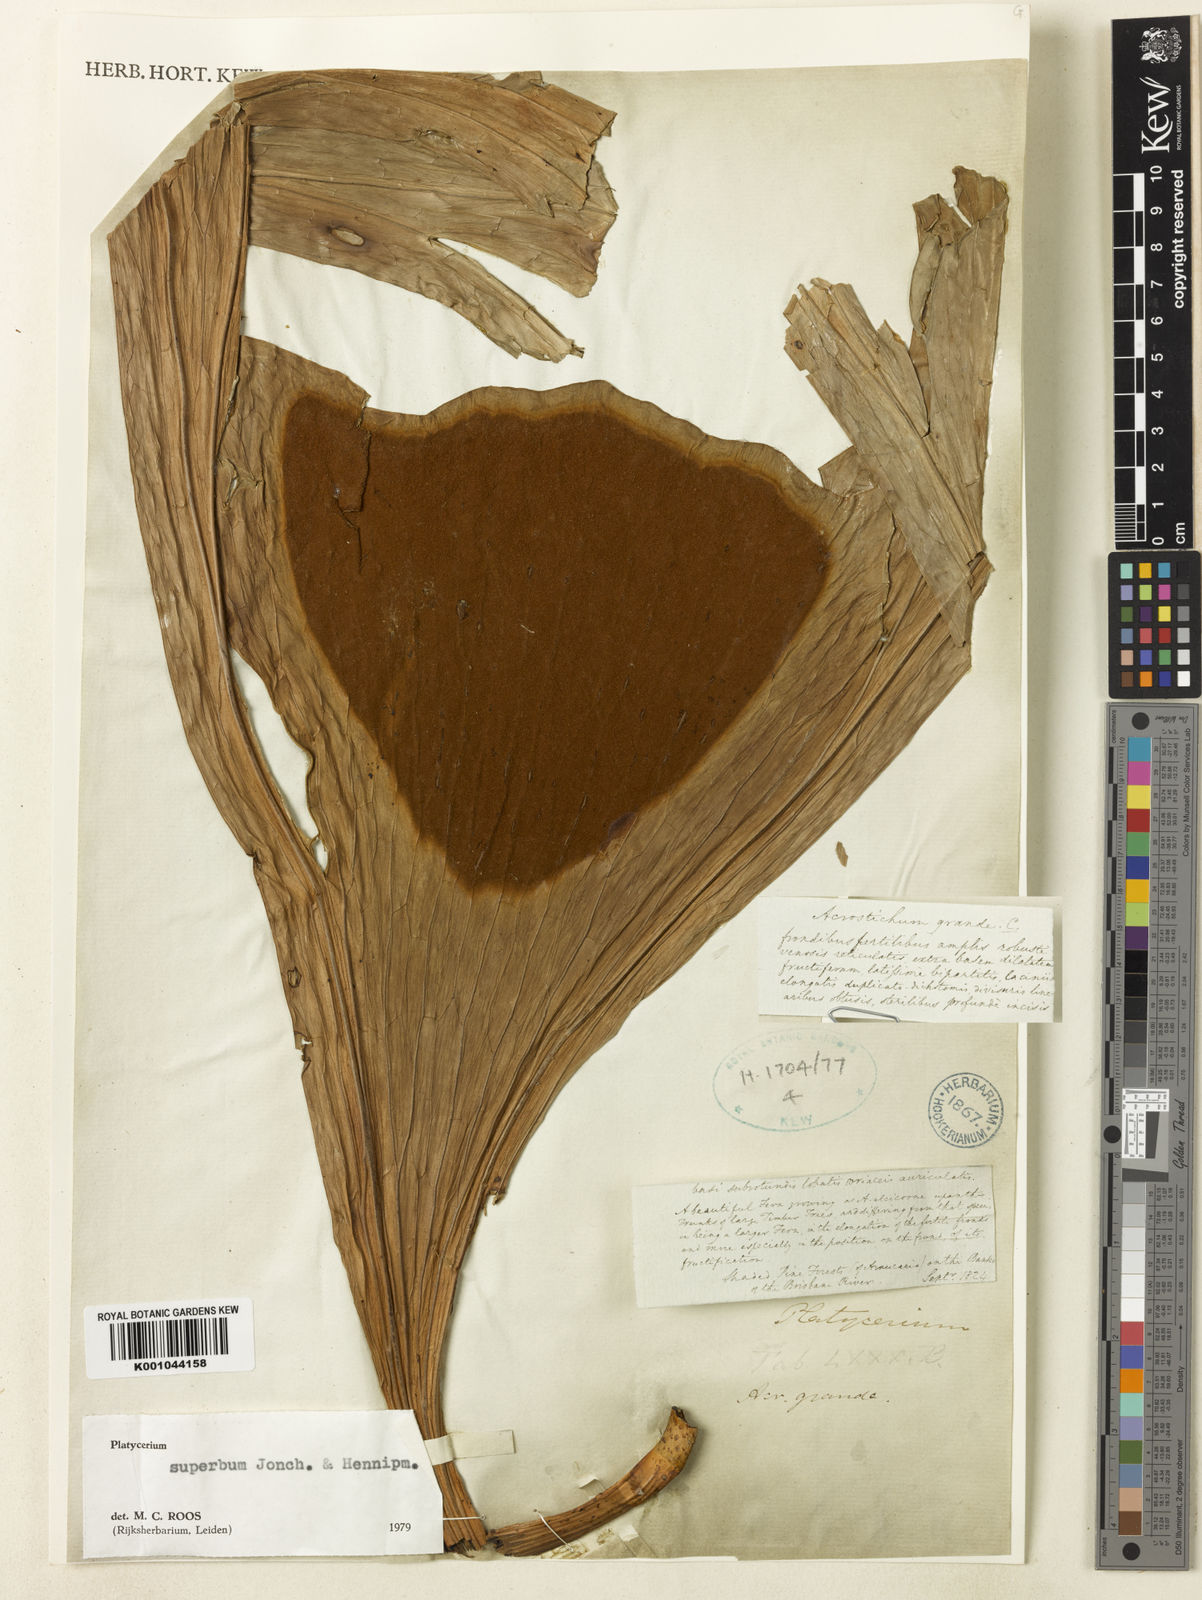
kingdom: Plantae
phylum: Tracheophyta
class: Polypodiopsida
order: Polypodiales
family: Polypodiaceae
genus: Platycerium
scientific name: Platycerium superbum
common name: Staghorn fern
